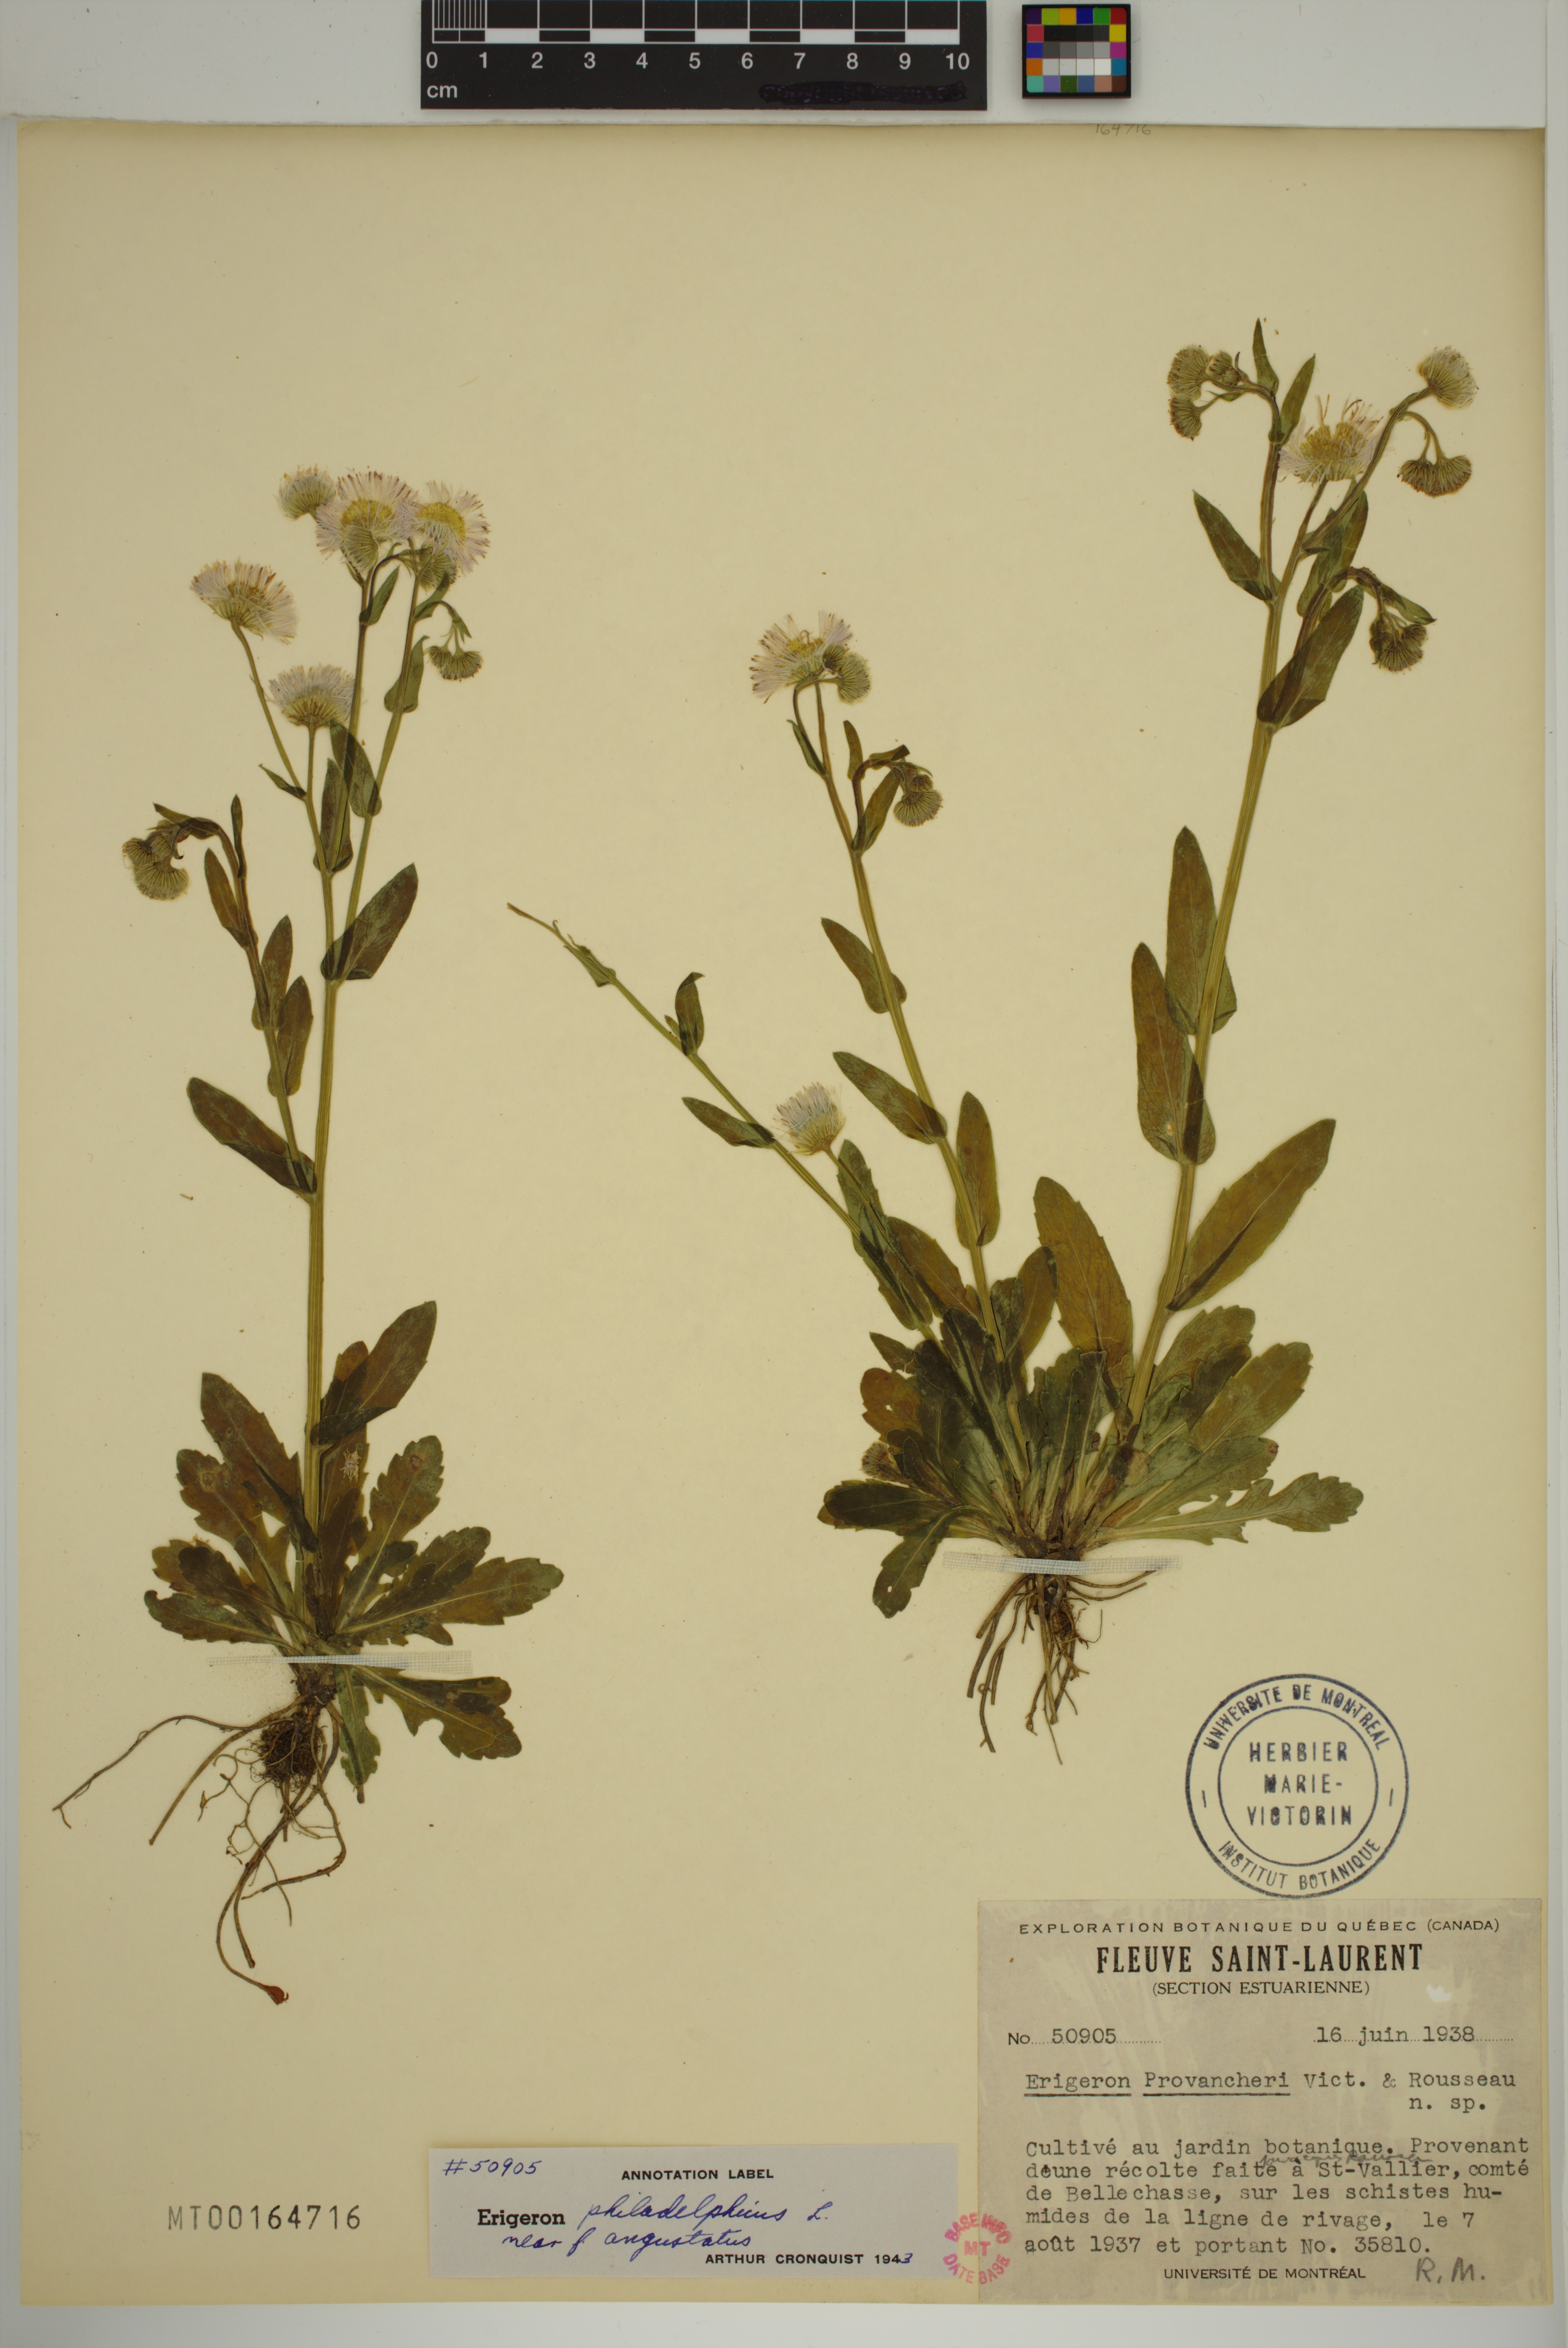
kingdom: Plantae
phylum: Tracheophyta
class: Magnoliopsida
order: Asterales
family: Asteraceae
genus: Erigeron
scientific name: Erigeron philadelphicus
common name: Robin's-plantain
